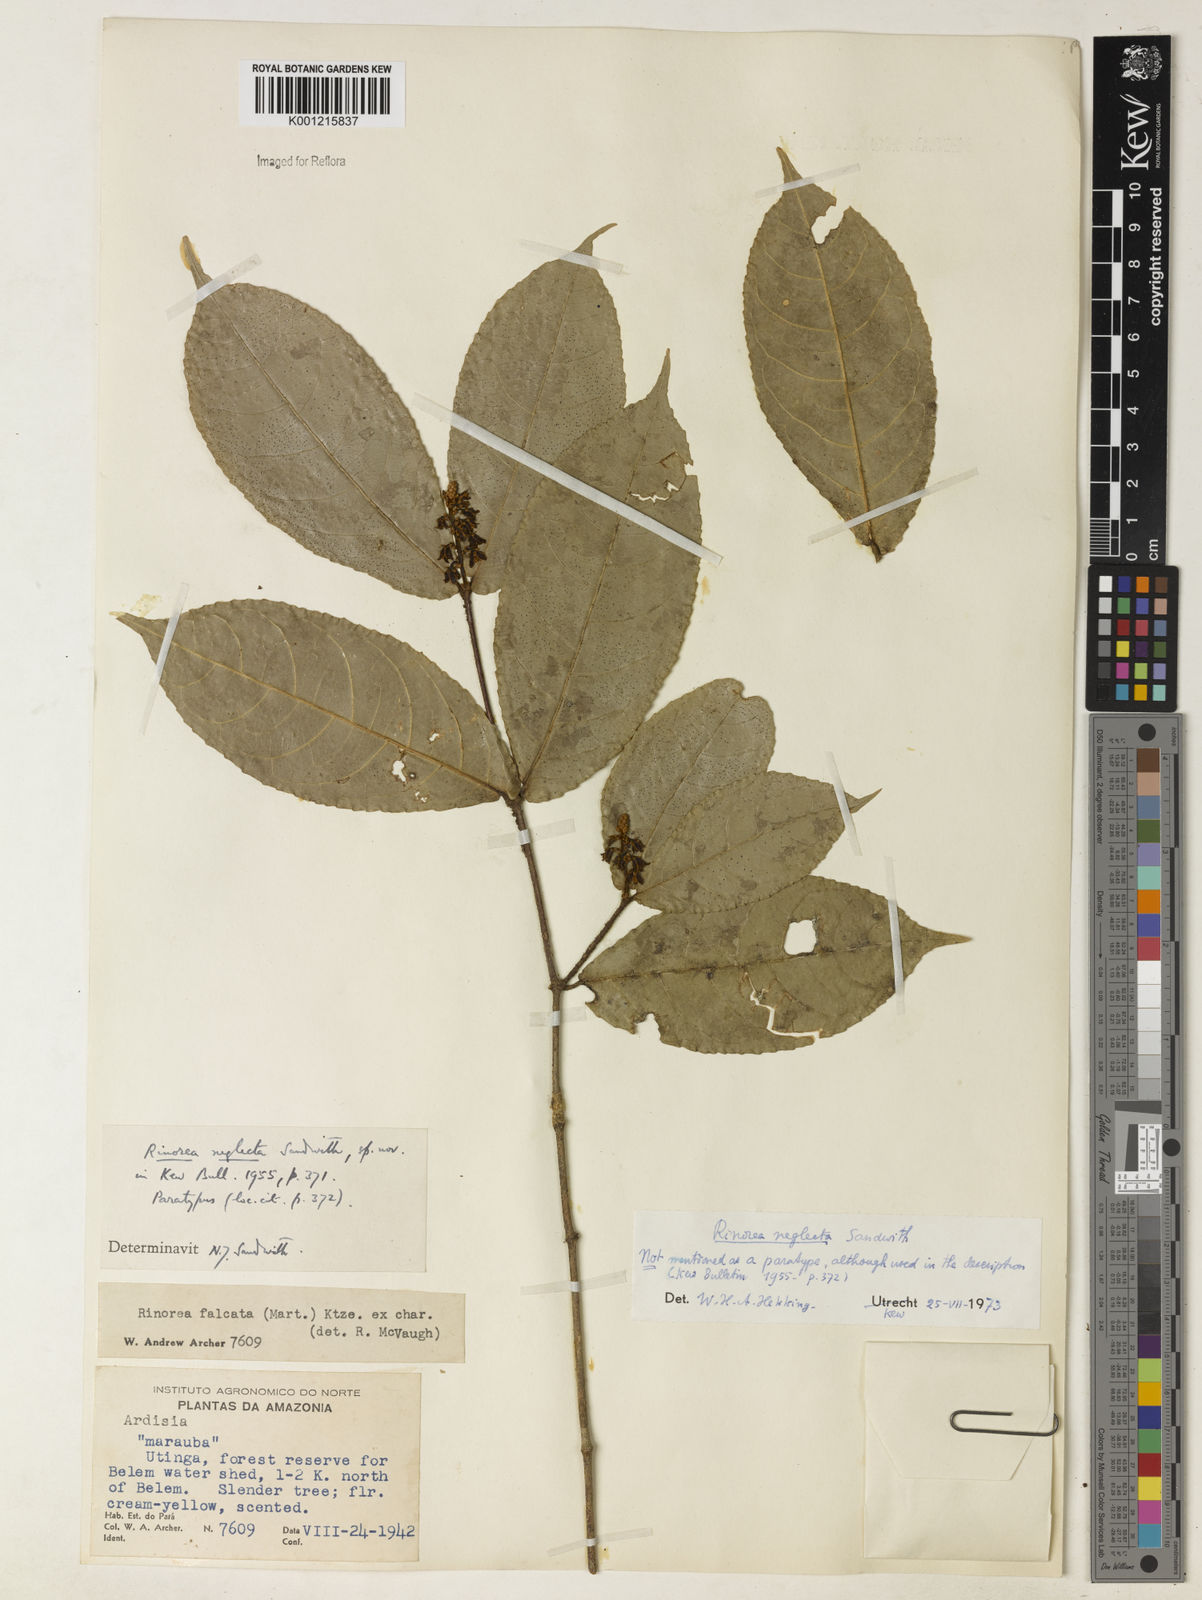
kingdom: Plantae
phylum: Tracheophyta
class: Magnoliopsida
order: Malpighiales
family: Violaceae
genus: Rinorea
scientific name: Rinorea neglecta
